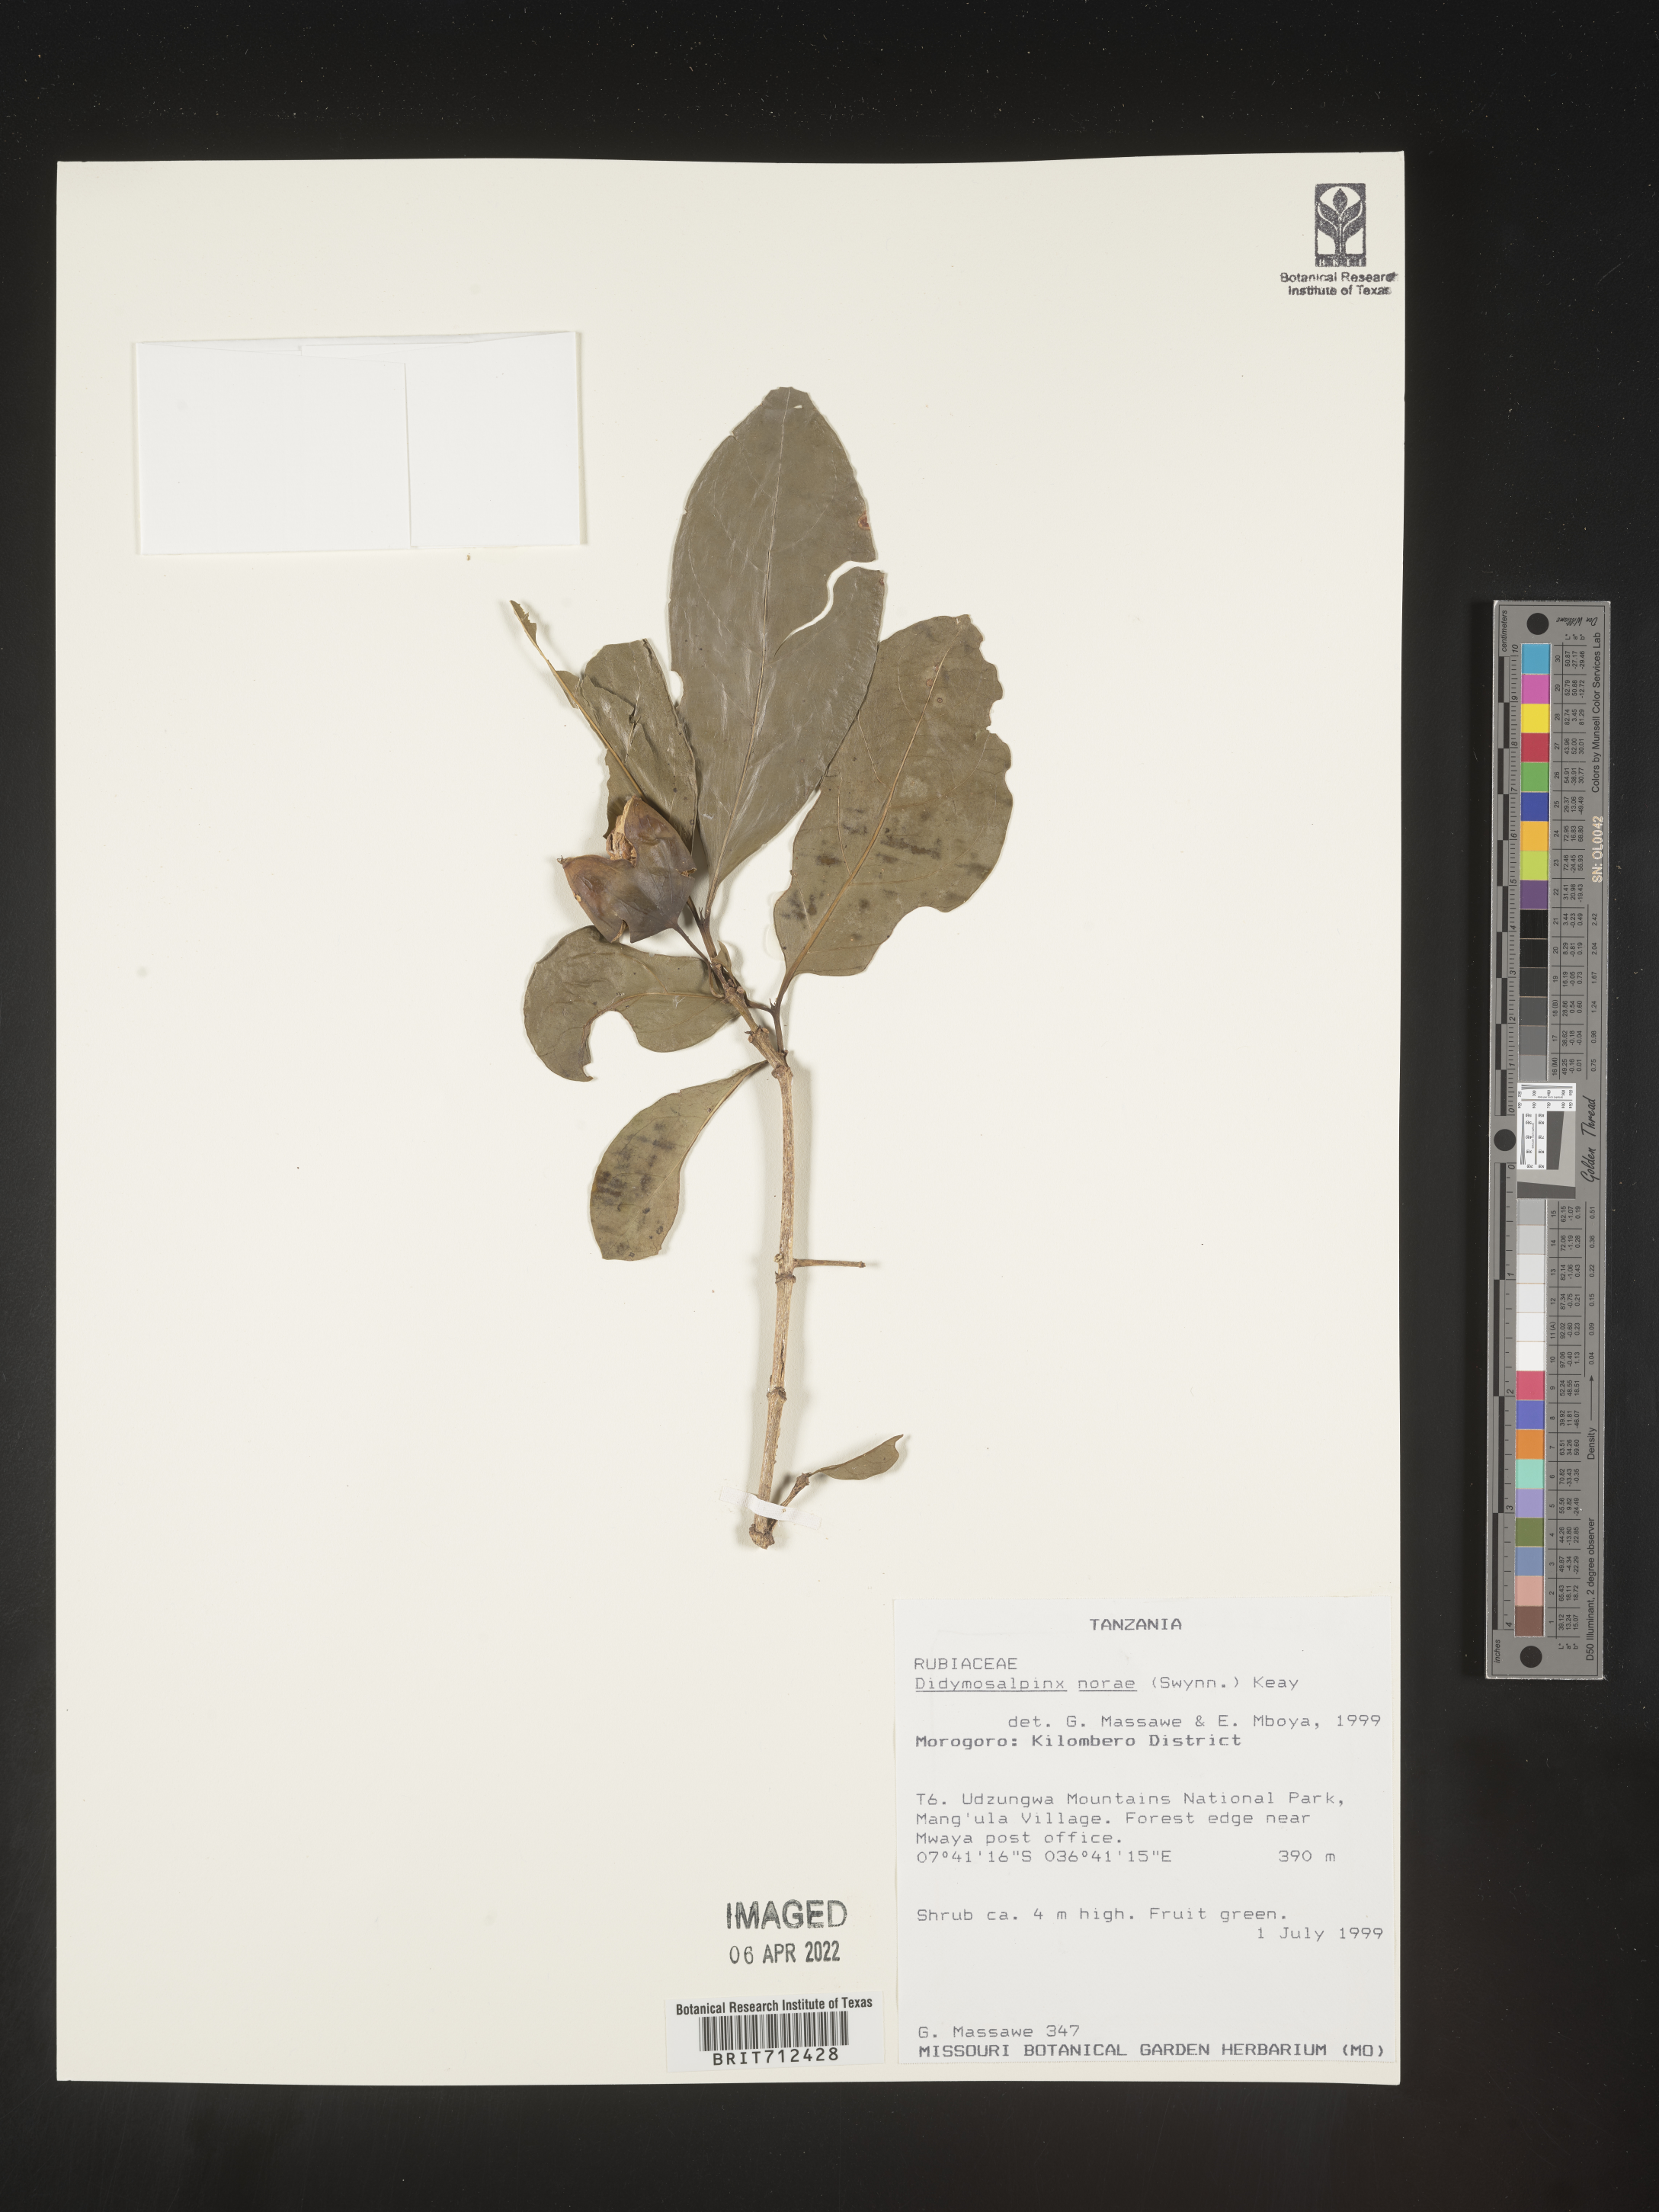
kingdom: Plantae
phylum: Tracheophyta
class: Magnoliopsida
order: Gentianales
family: Rubiaceae
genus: Didymosalpinx
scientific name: Didymosalpinx
